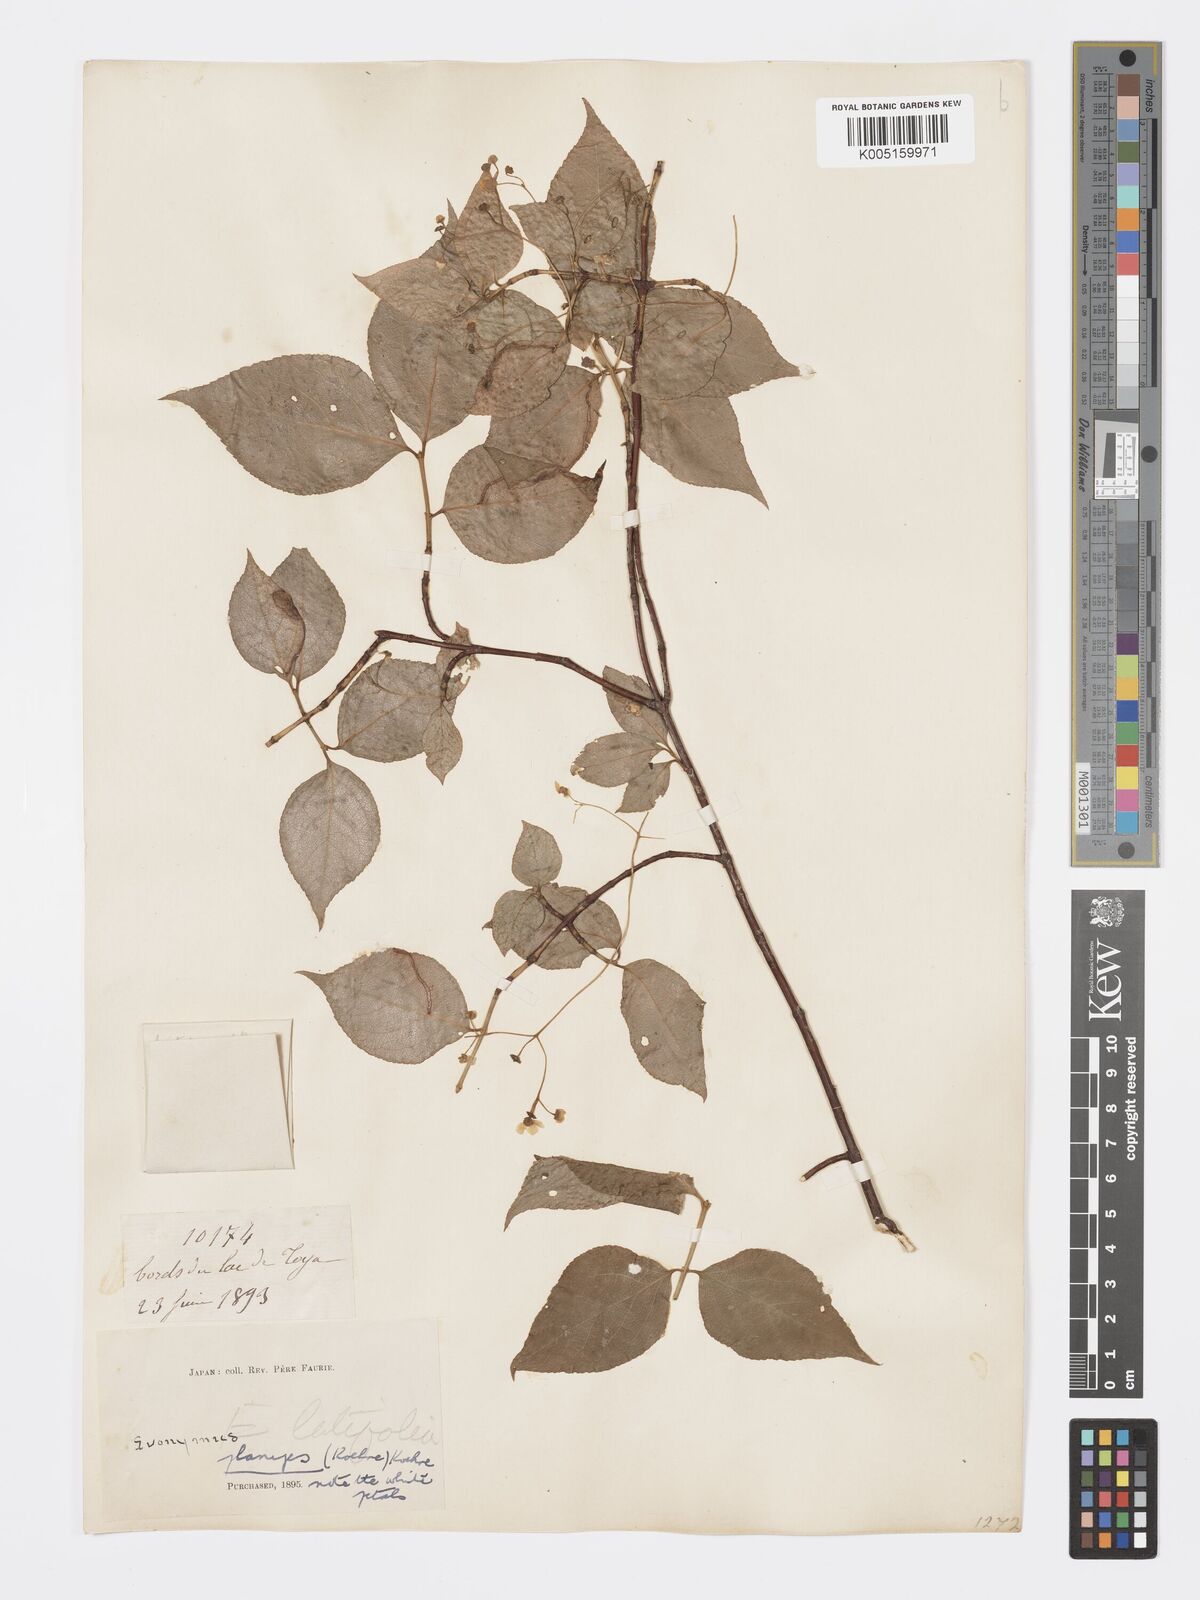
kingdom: Plantae
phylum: Tracheophyta
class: Magnoliopsida
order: Celastrales
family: Celastraceae
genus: Euonymus
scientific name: Euonymus sachalinensis
